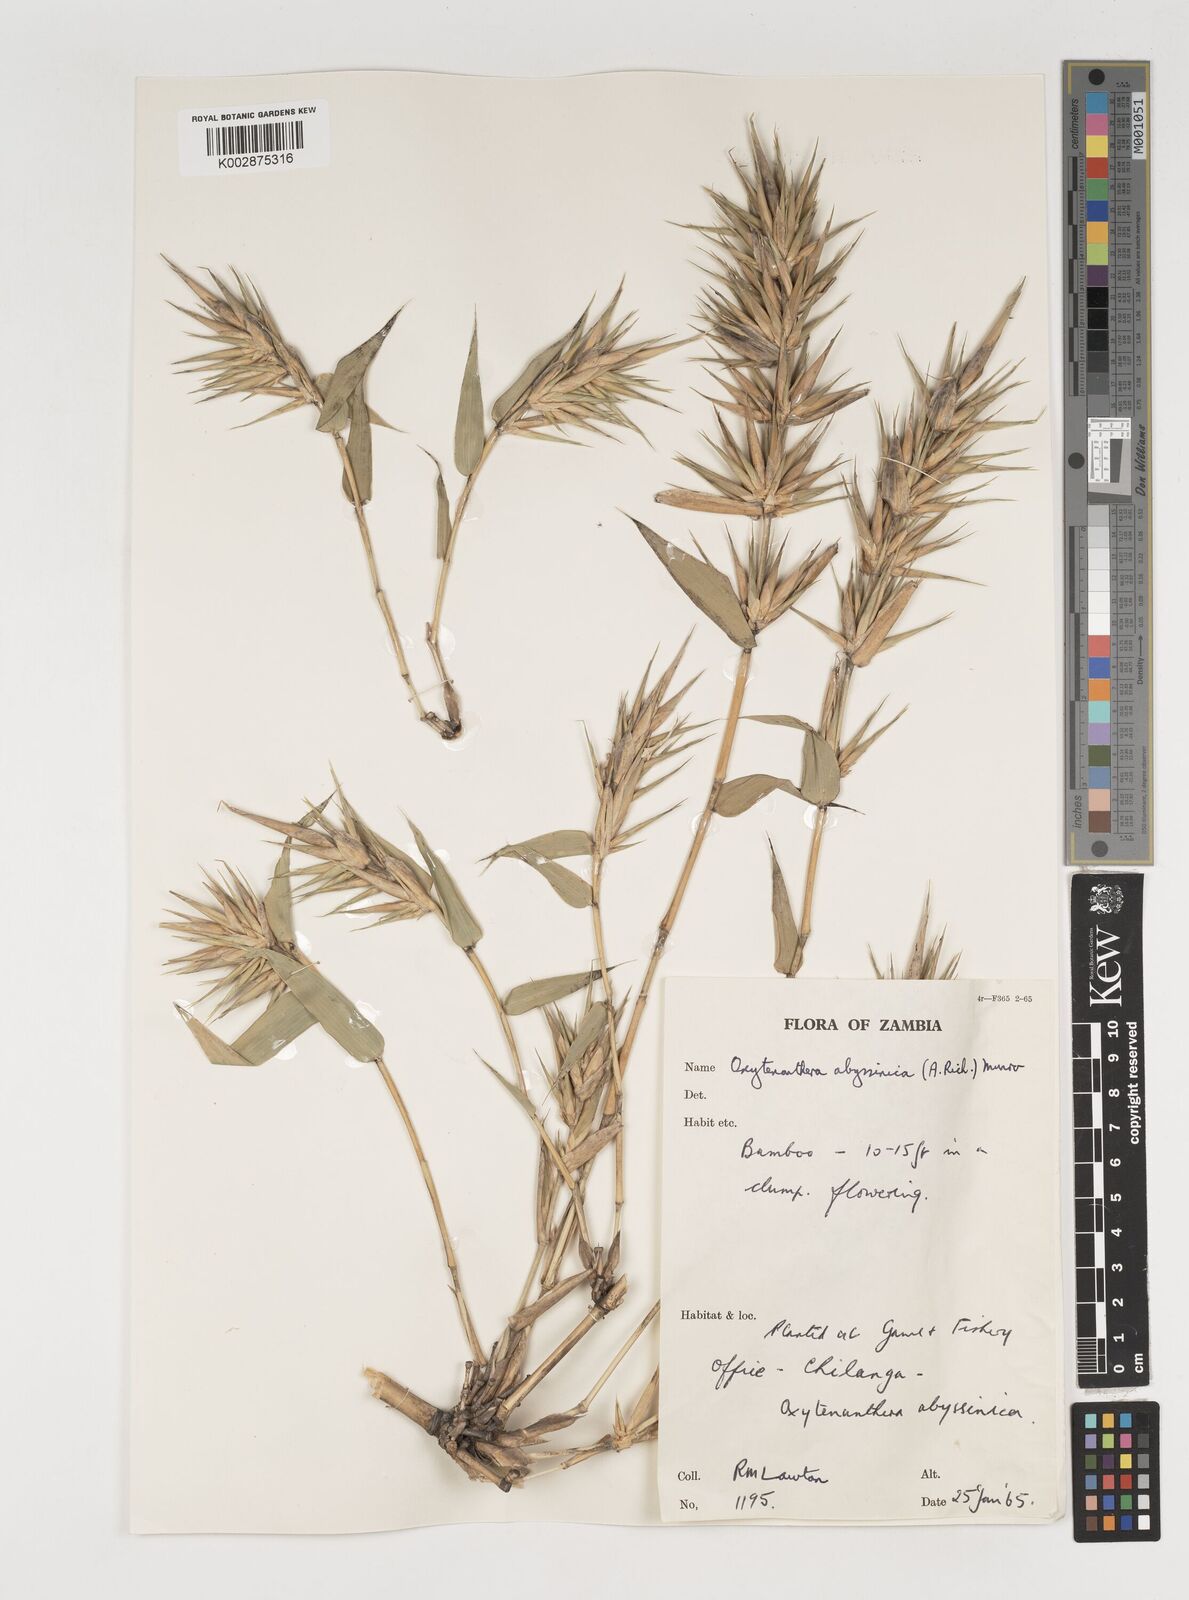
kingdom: Plantae
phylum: Tracheophyta
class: Liliopsida
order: Poales
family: Poaceae
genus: Oxytenanthera
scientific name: Oxytenanthera abyssinica
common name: Wine bamboo
